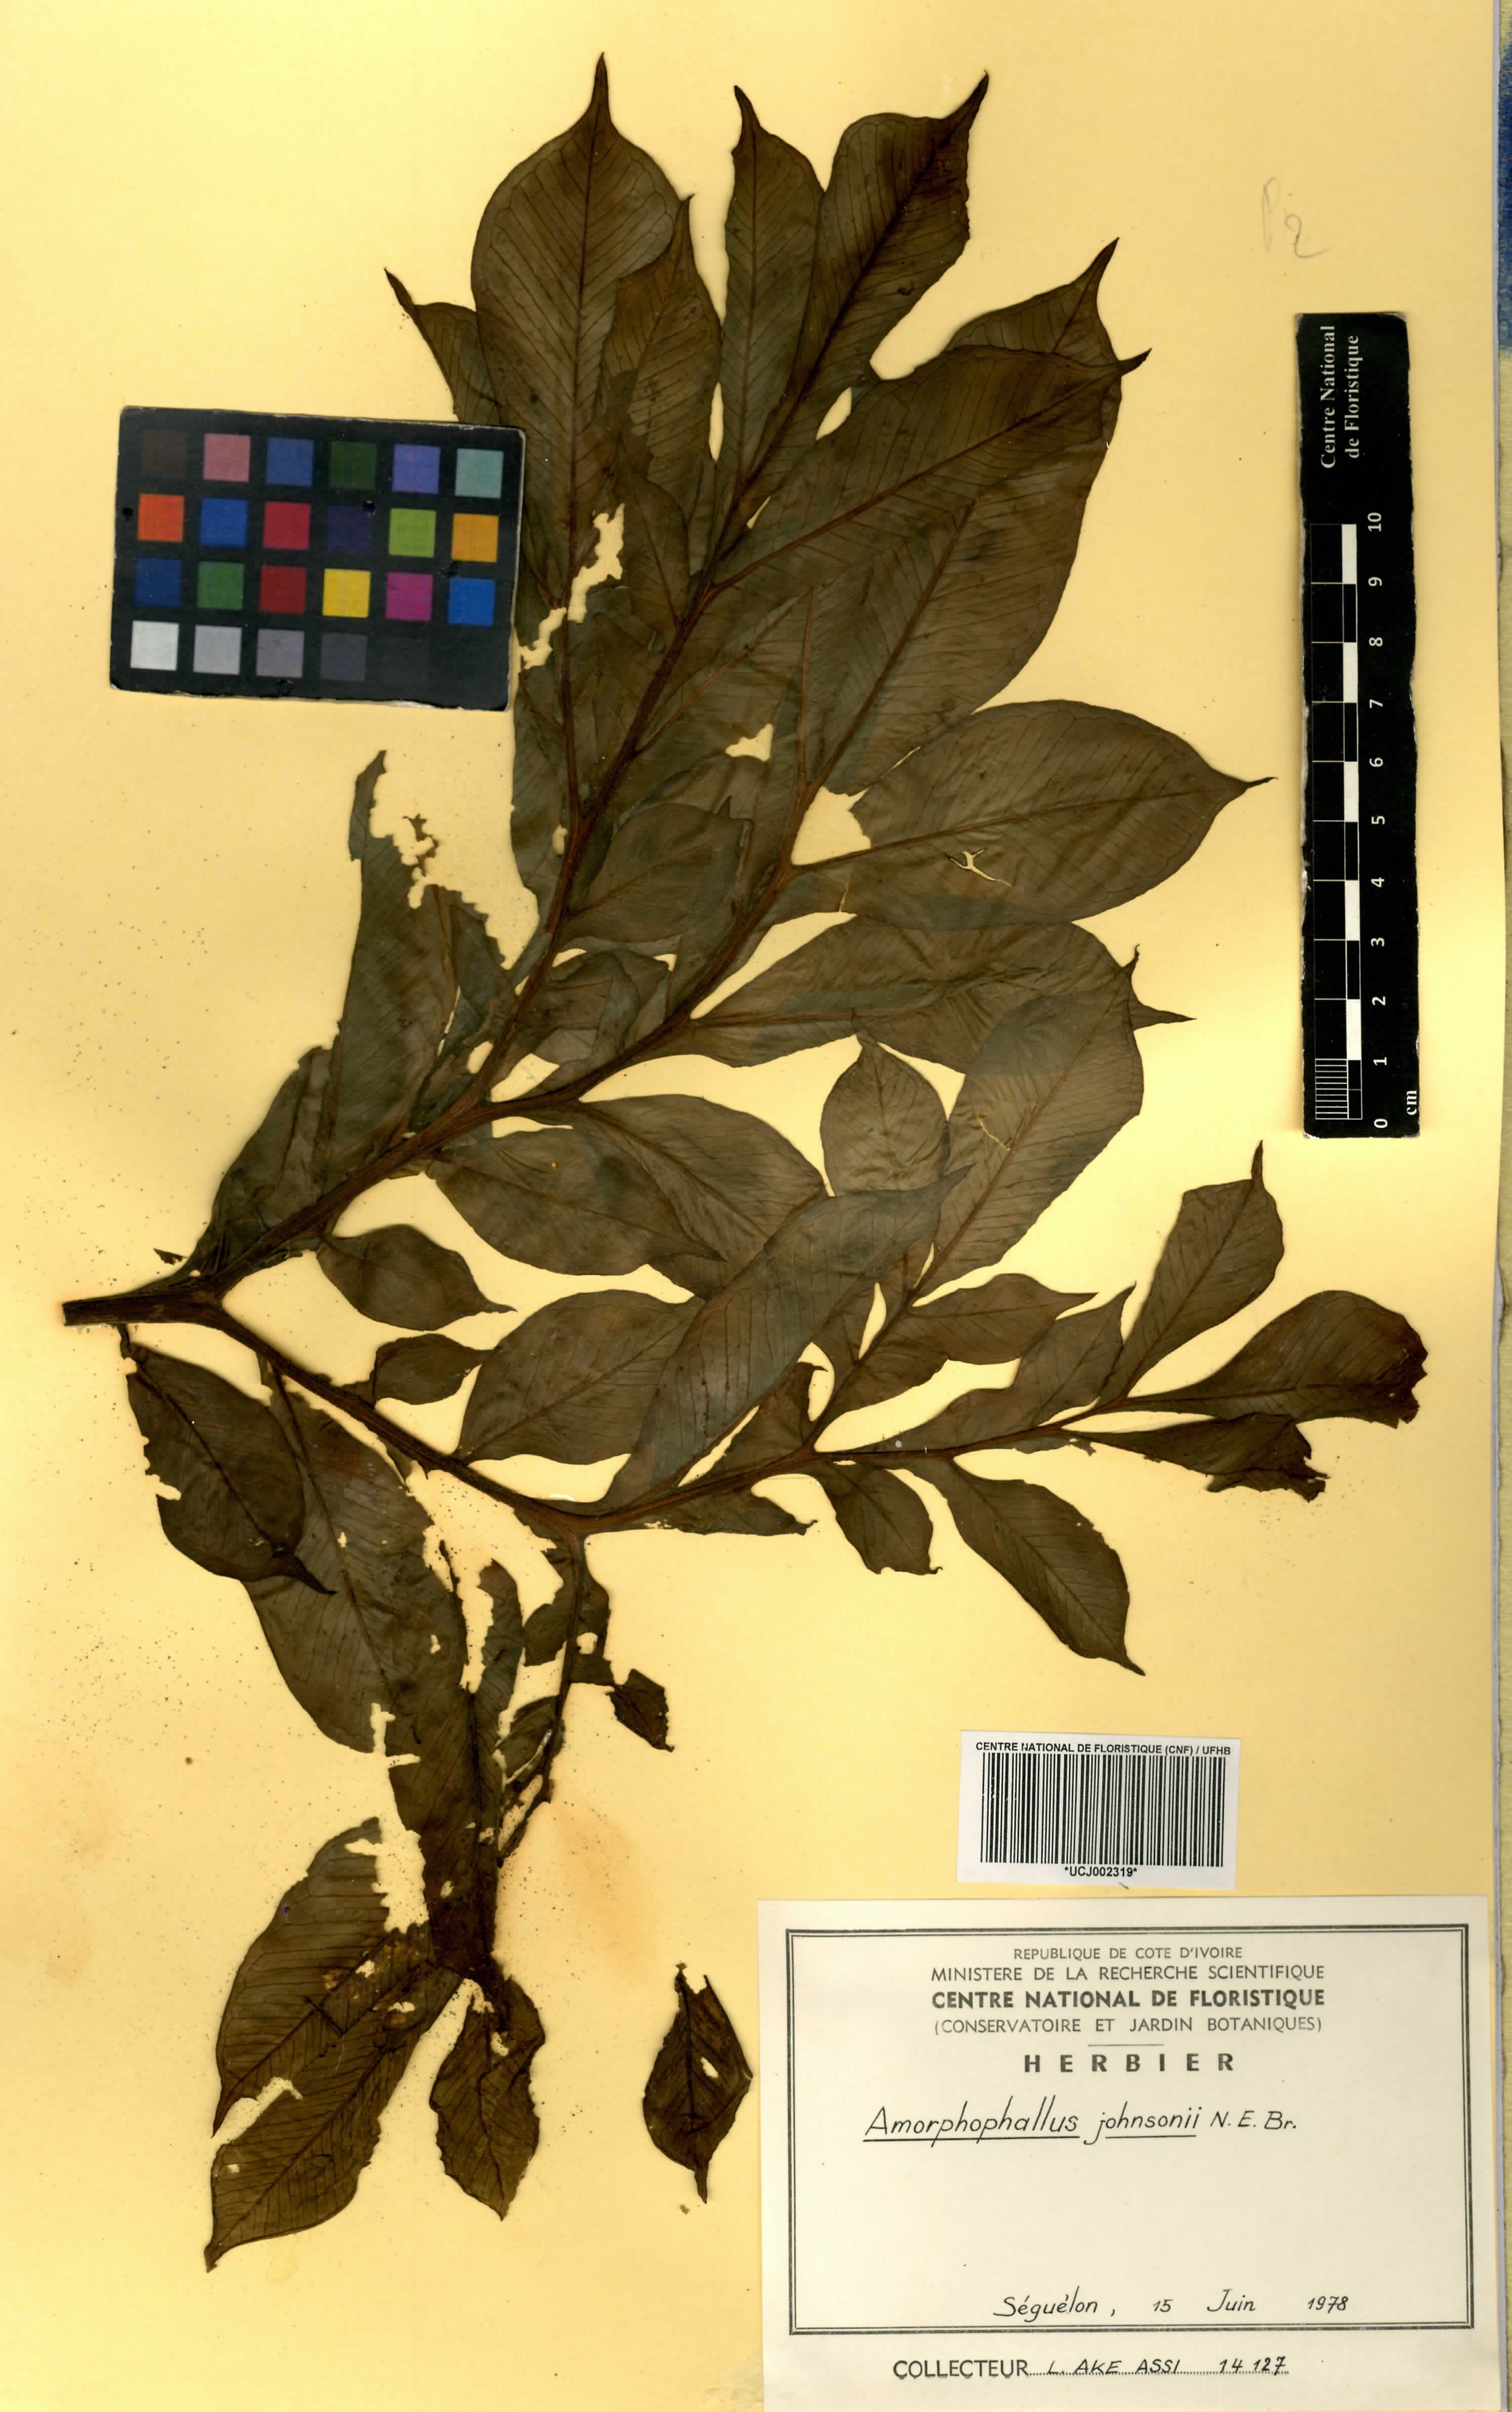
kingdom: Plantae
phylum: Tracheophyta
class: Liliopsida
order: Alismatales
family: Araceae
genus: Amorphophallus
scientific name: Amorphophallus johnsonii
